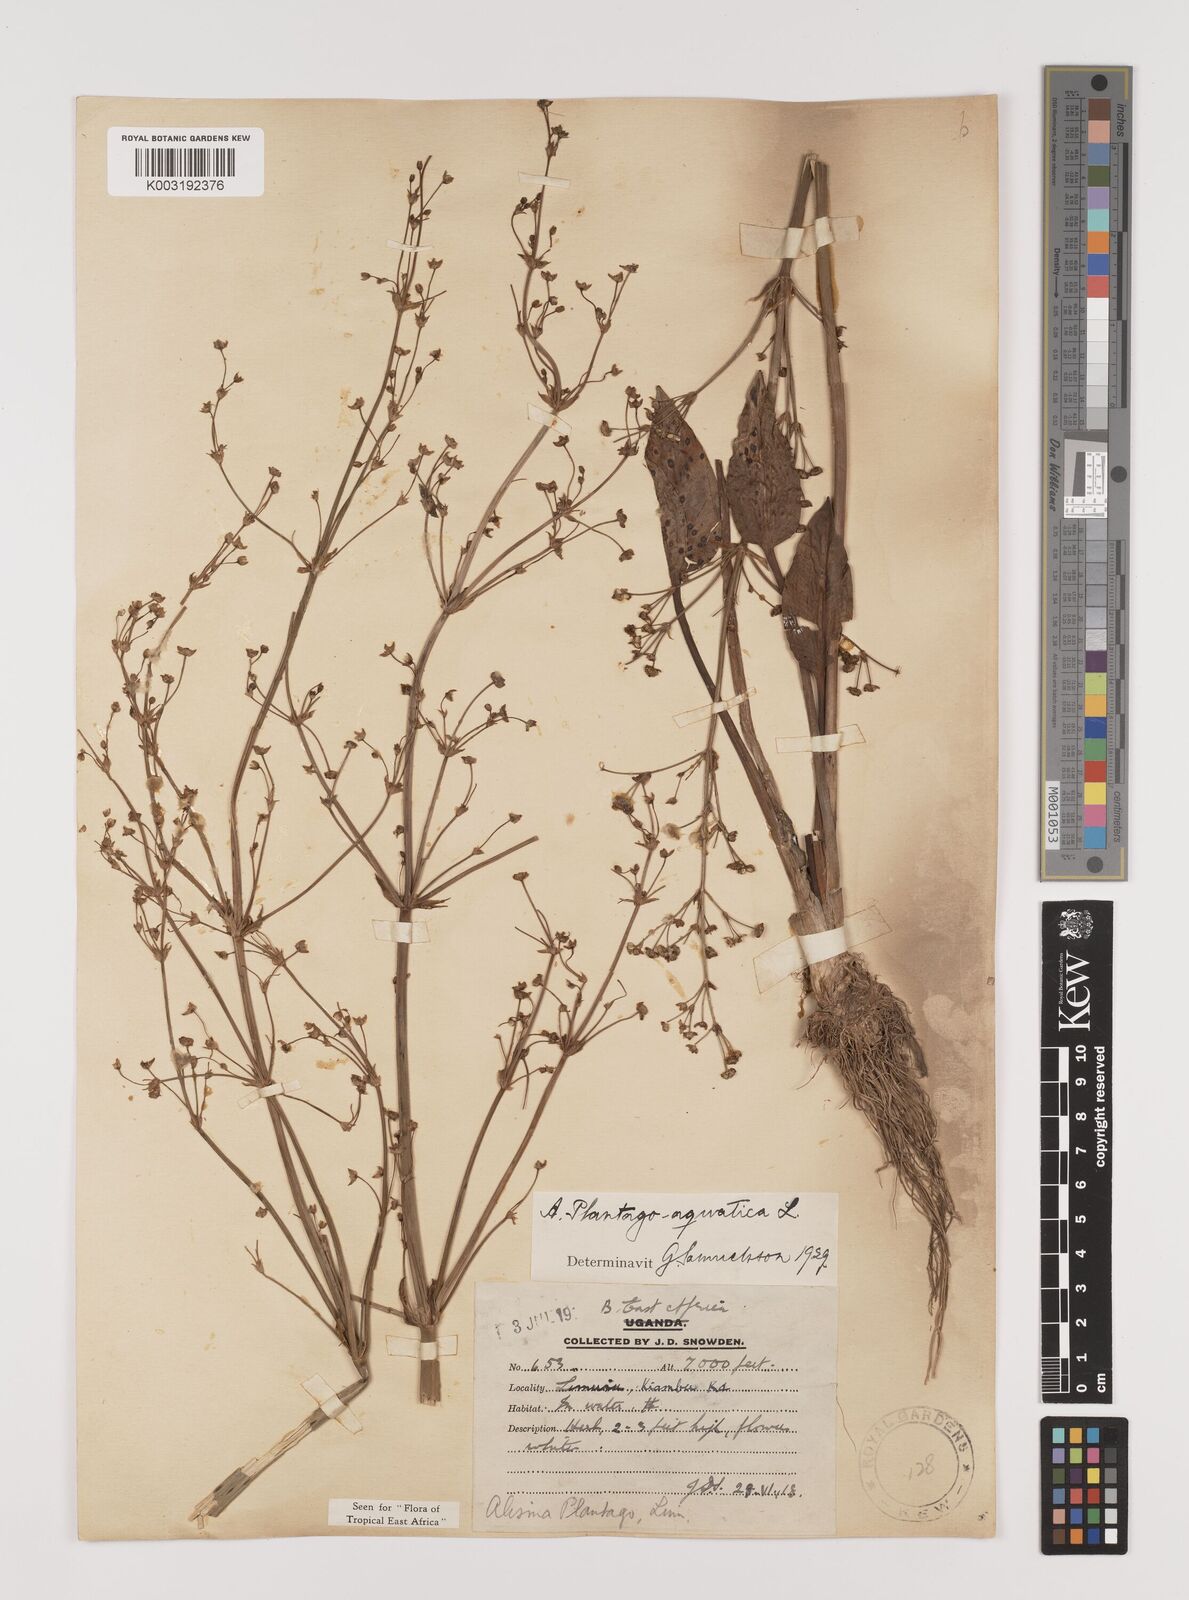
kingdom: Plantae
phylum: Tracheophyta
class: Liliopsida
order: Alismatales
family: Alismataceae
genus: Alisma
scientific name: Alisma plantago-aquatica
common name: Water-plantain
